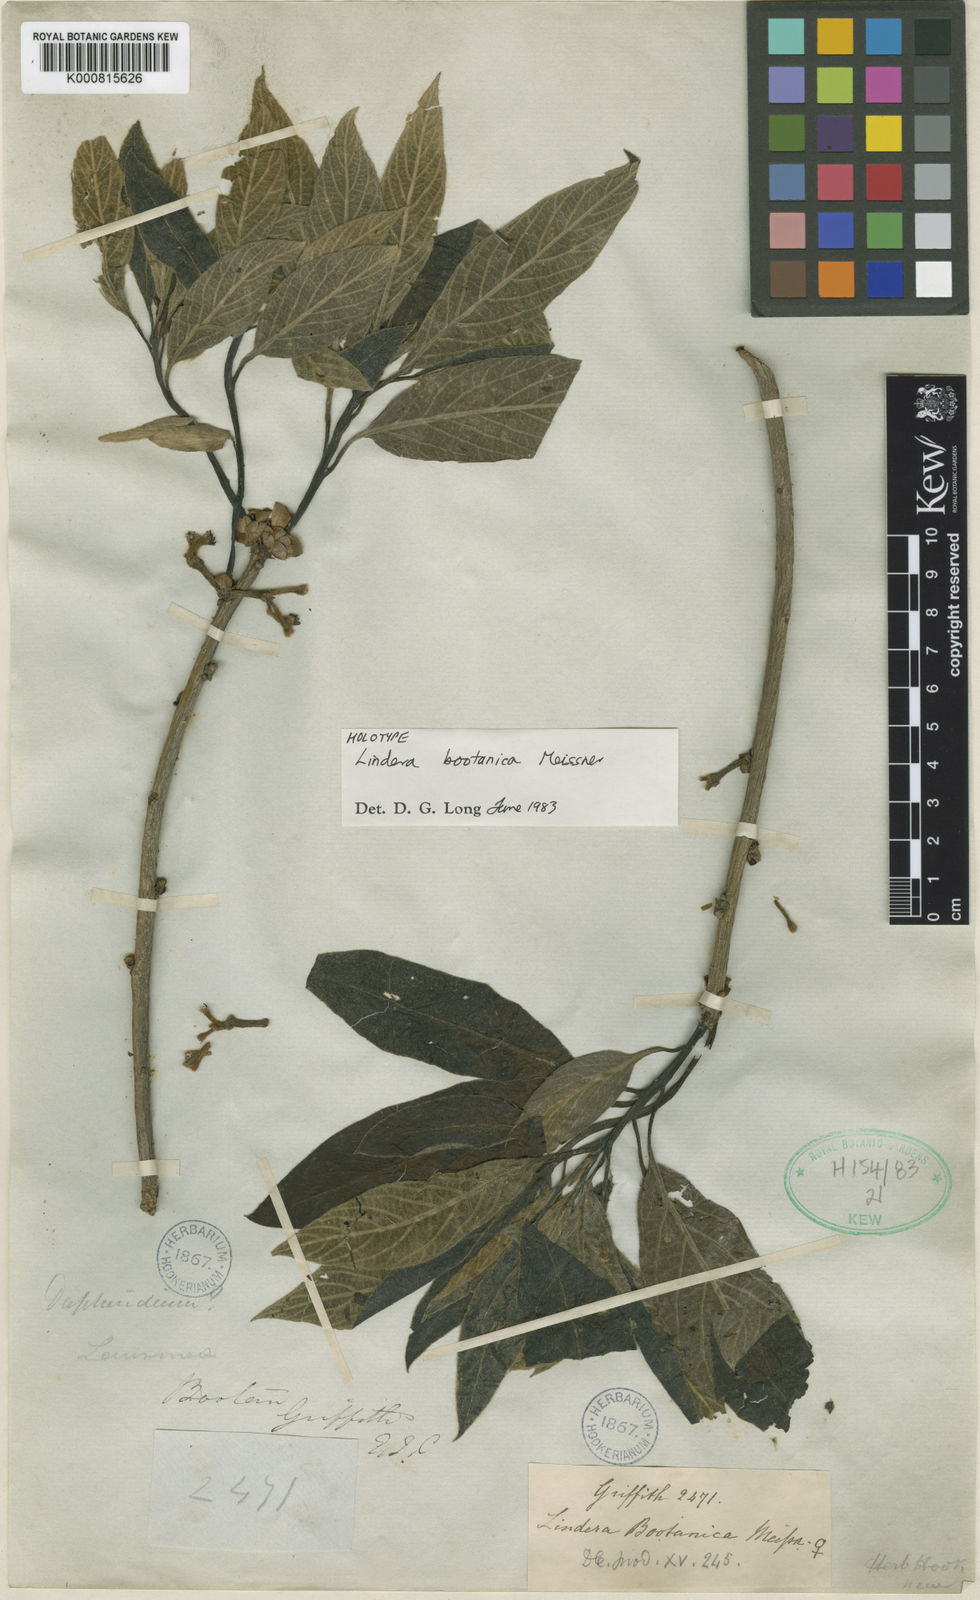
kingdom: Plantae
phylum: Tracheophyta
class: Magnoliopsida
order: Laurales
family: Lauraceae
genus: Lindera
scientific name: Lindera bootanica
